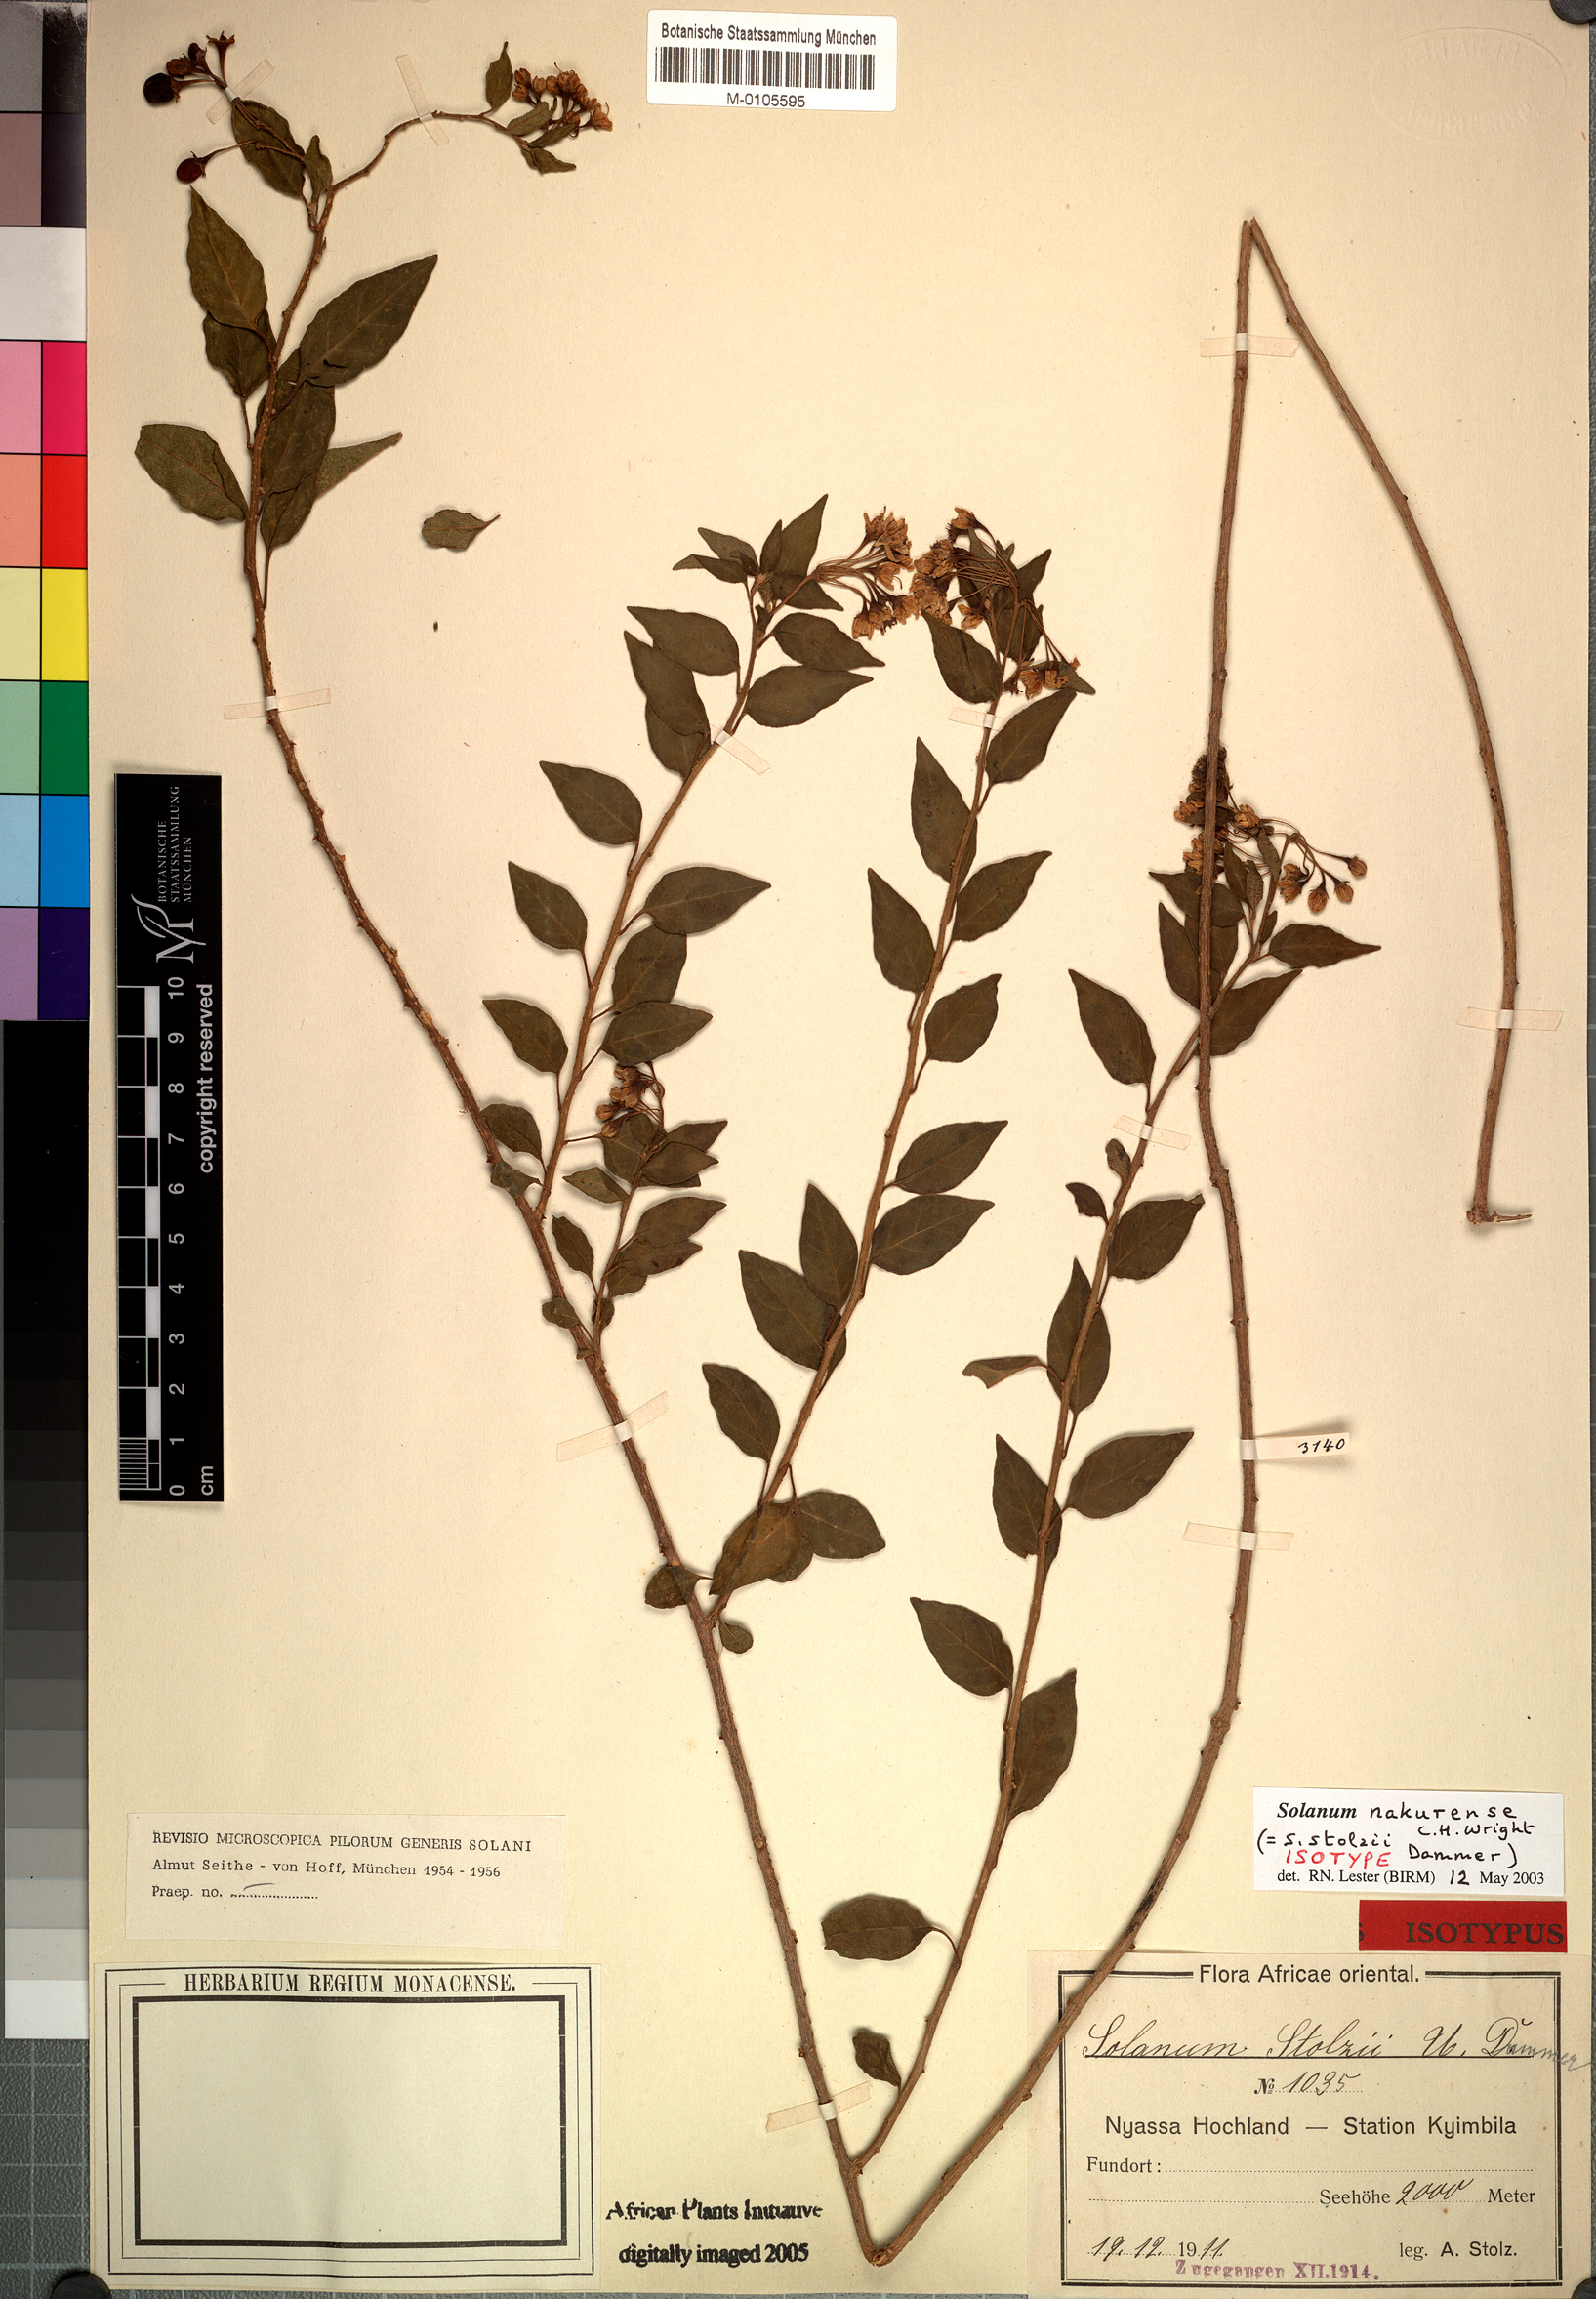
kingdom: Plantae
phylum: Tracheophyta
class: Magnoliopsida
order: Solanales
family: Solanaceae
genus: Solanum
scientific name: Solanum nakurense
